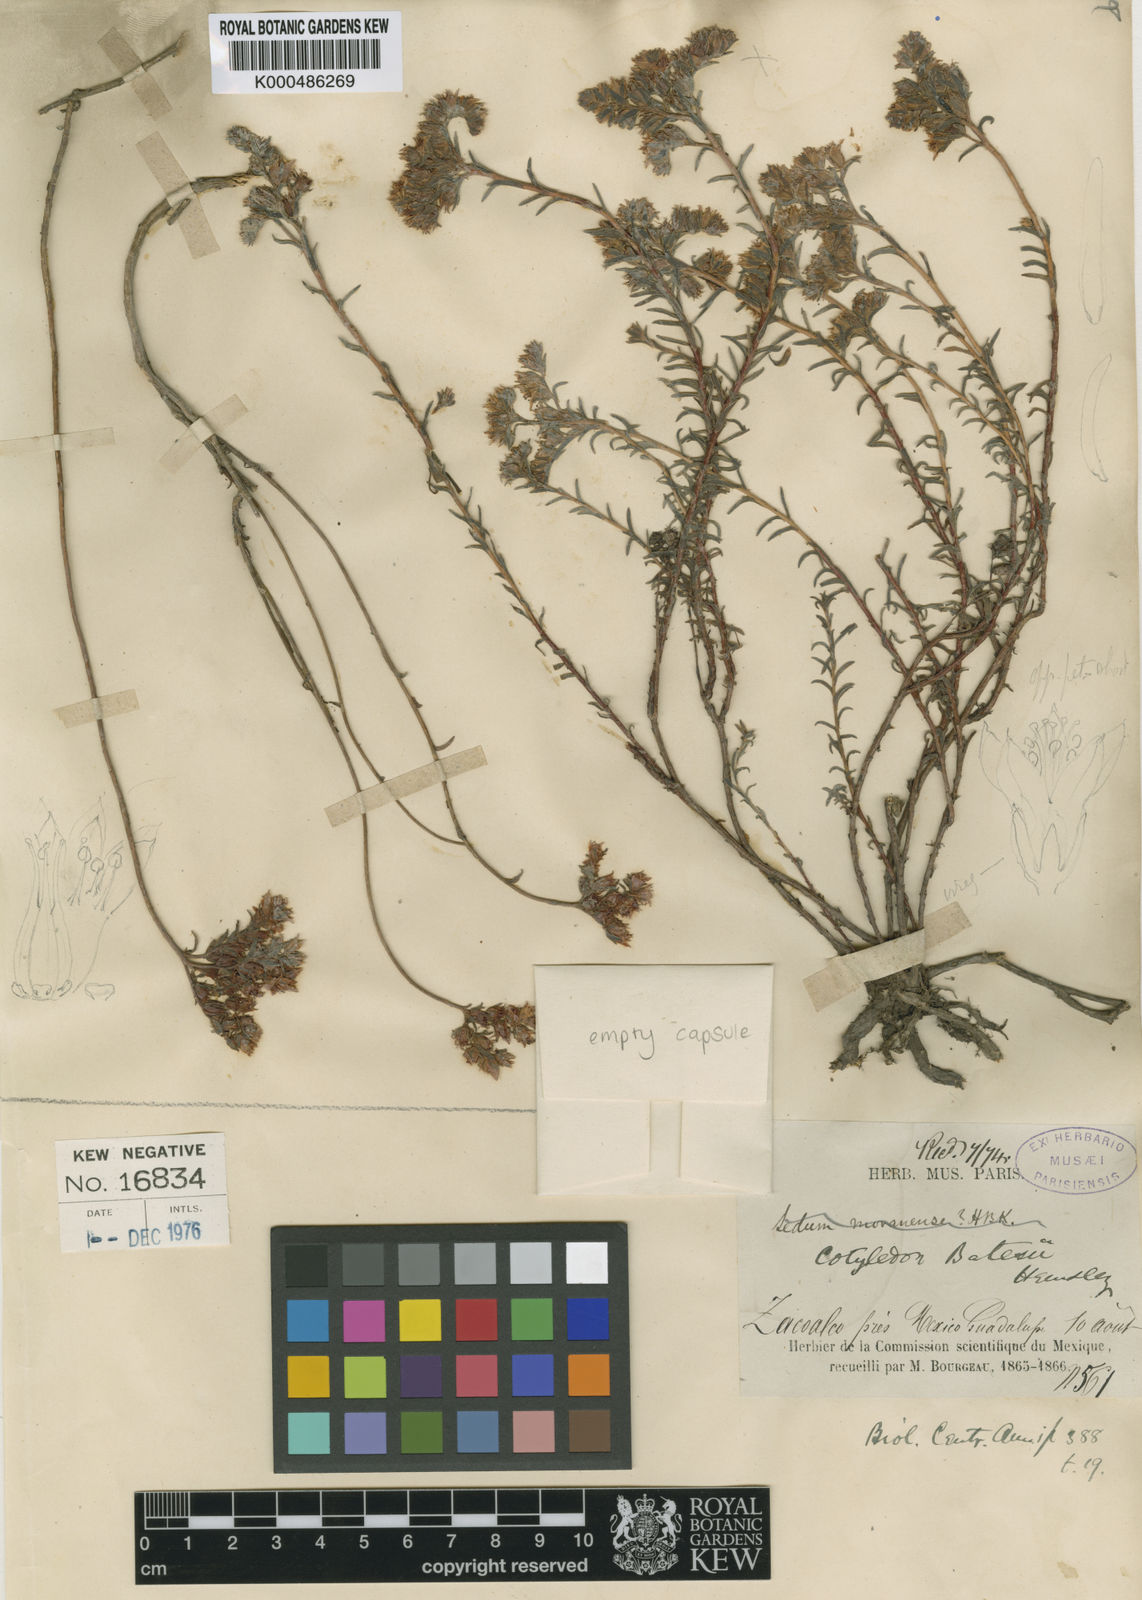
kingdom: Plantae
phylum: Tracheophyta
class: Magnoliopsida
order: Saxifragales
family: Crassulaceae
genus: Sedum
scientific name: Sedum goldmanii
